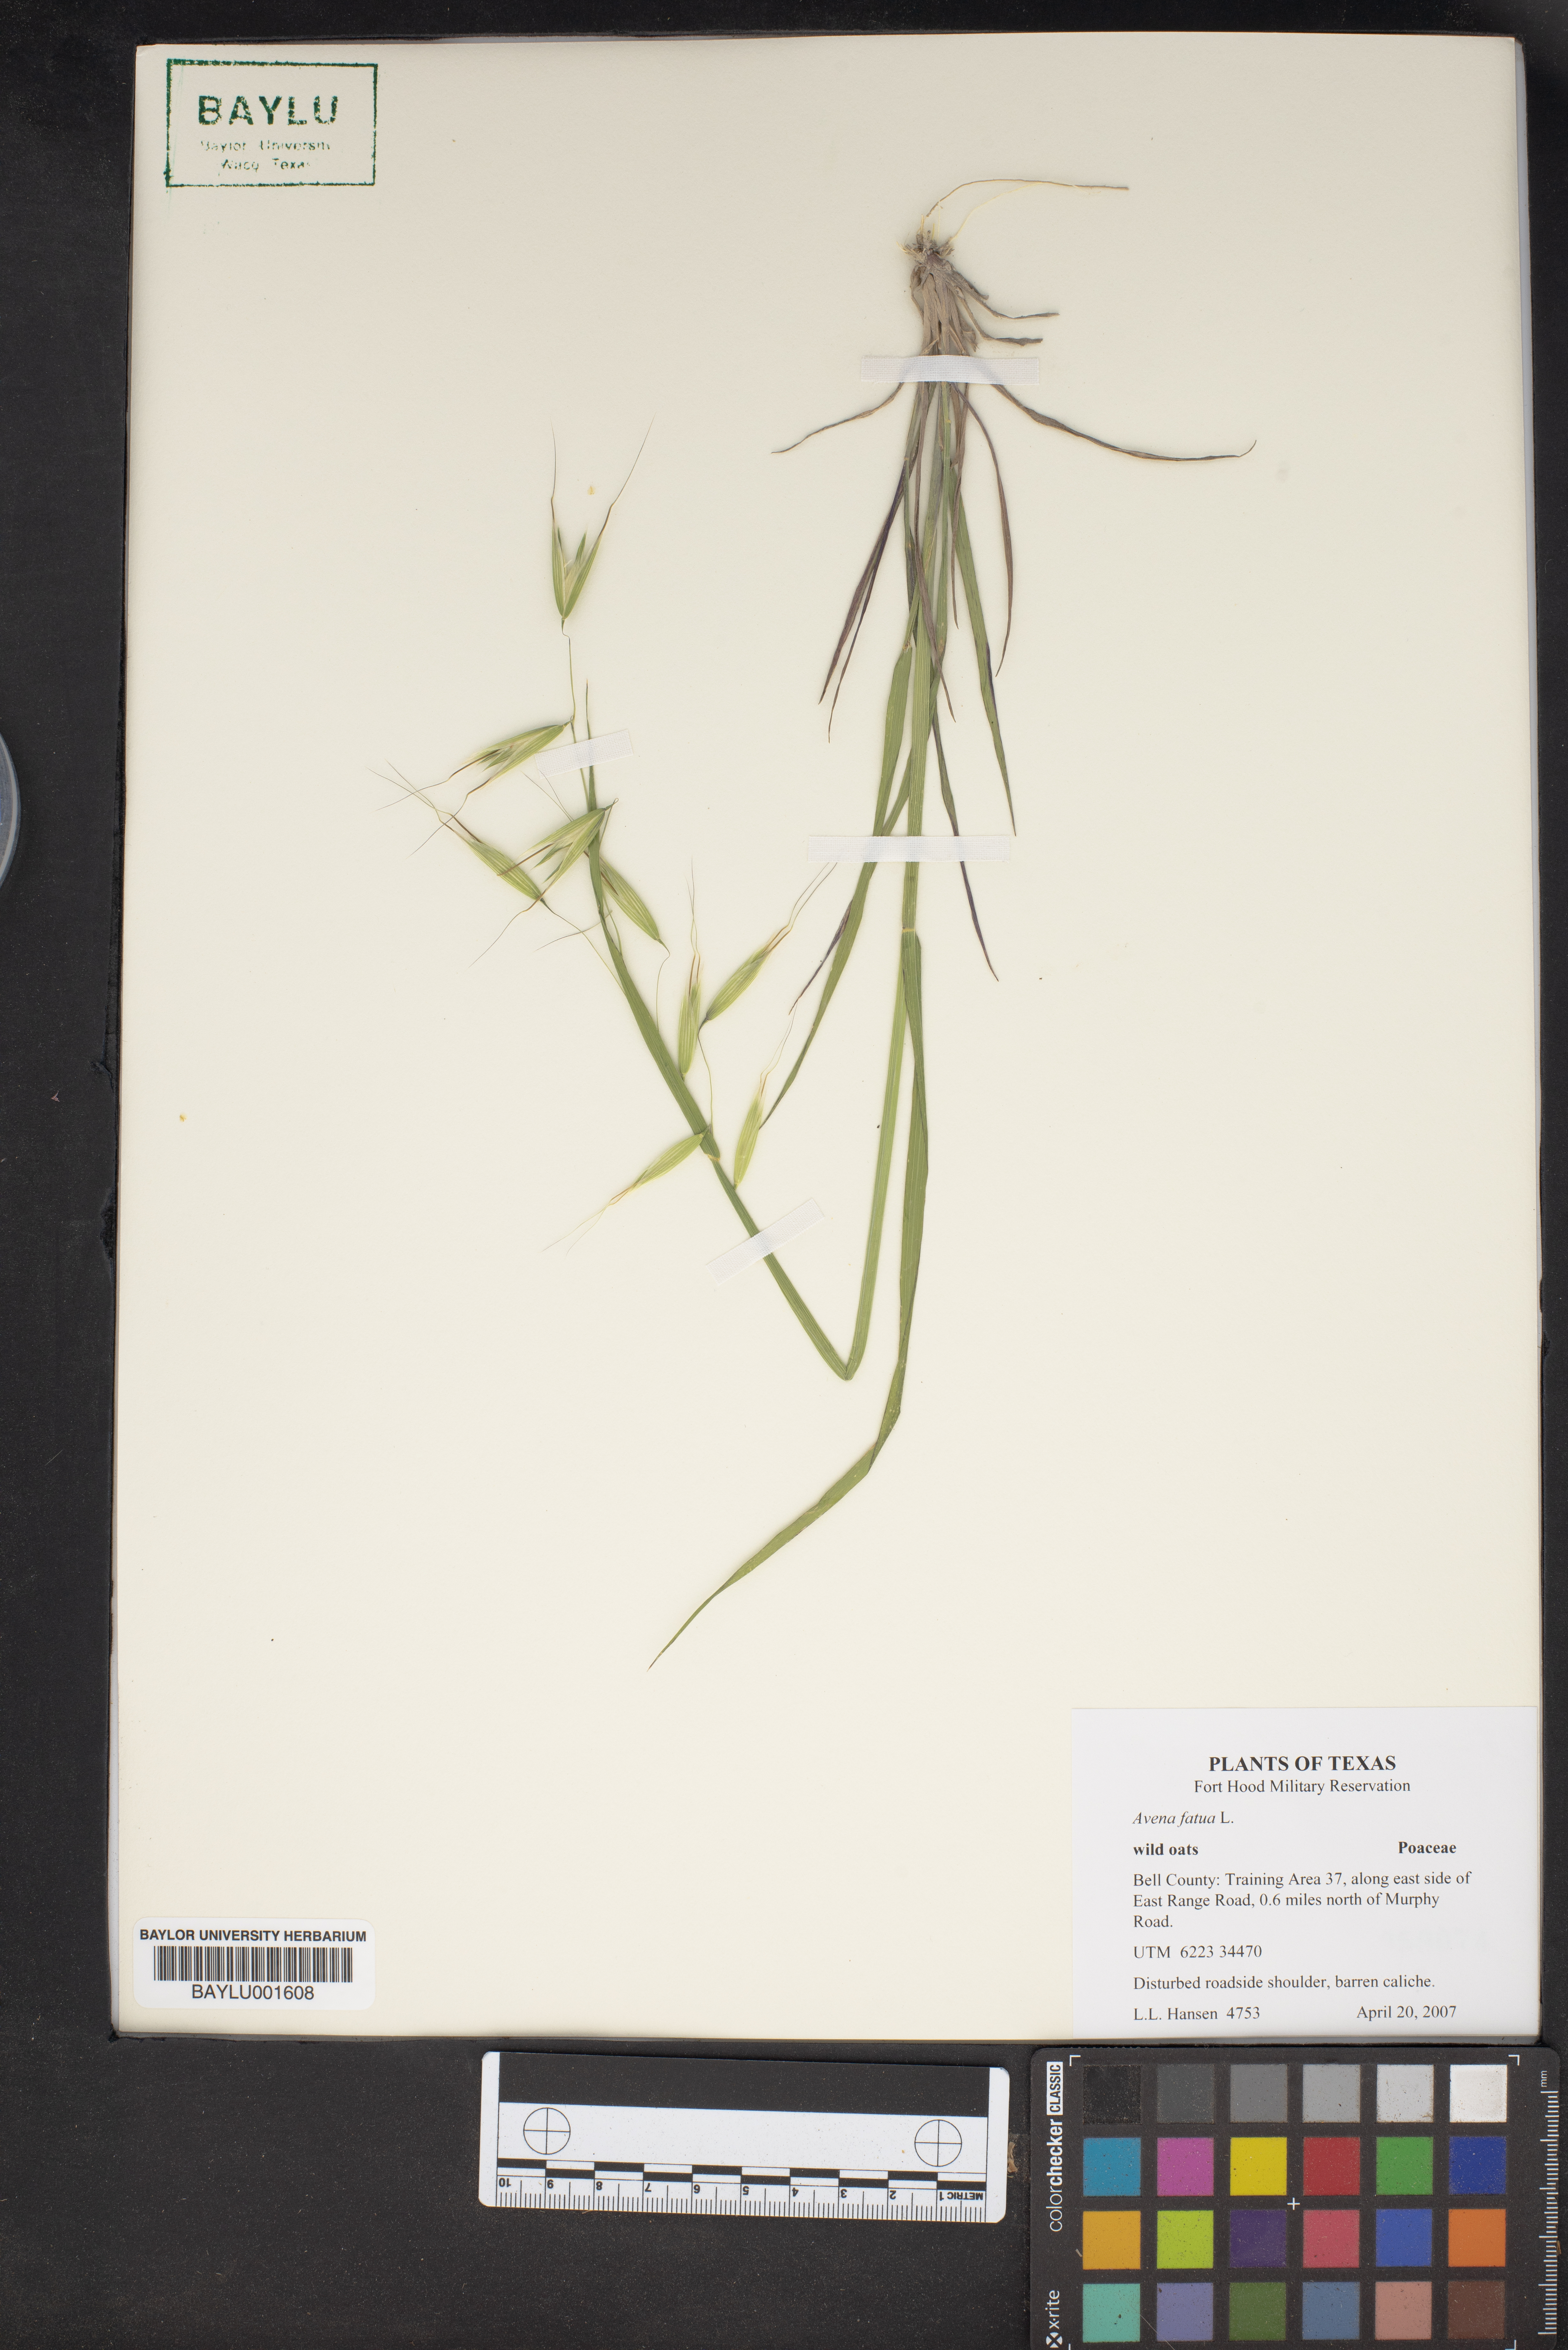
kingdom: Plantae
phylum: Tracheophyta
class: Liliopsida
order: Poales
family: Poaceae
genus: Avena
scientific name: Avena fatua
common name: Wild oat
